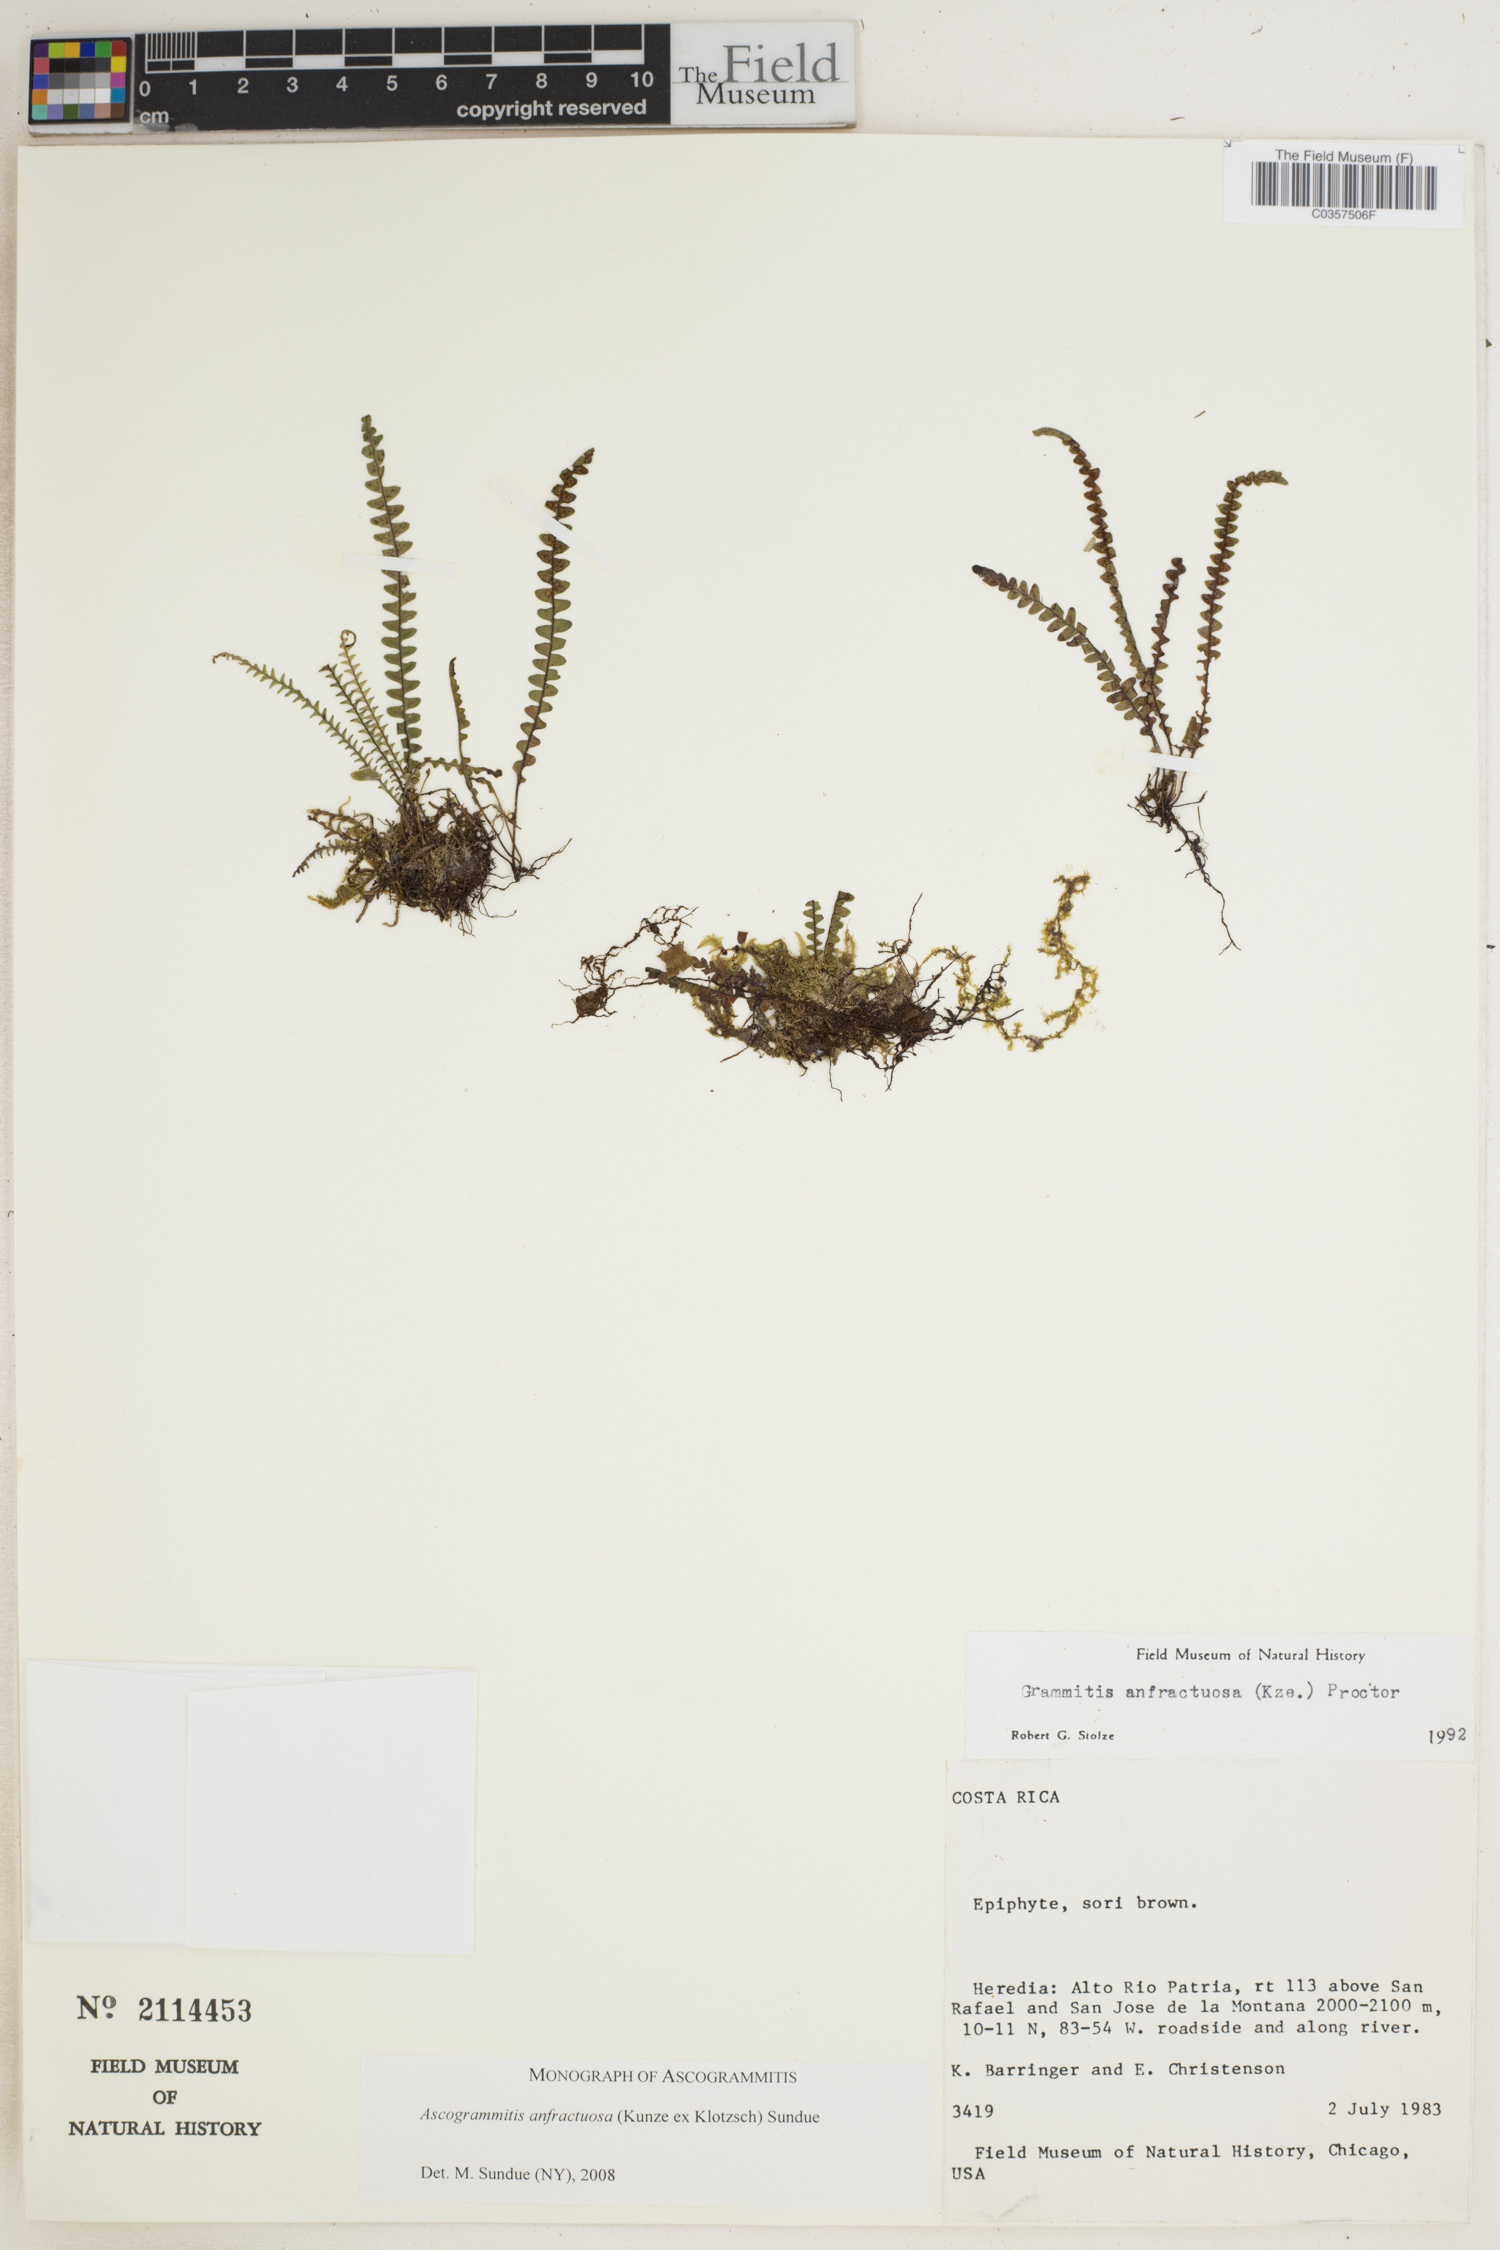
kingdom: Plantae
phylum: Tracheophyta
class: Polypodiopsida
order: Polypodiales
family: Polypodiaceae
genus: Ascogrammitis
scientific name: Ascogrammitis anfractuosa
